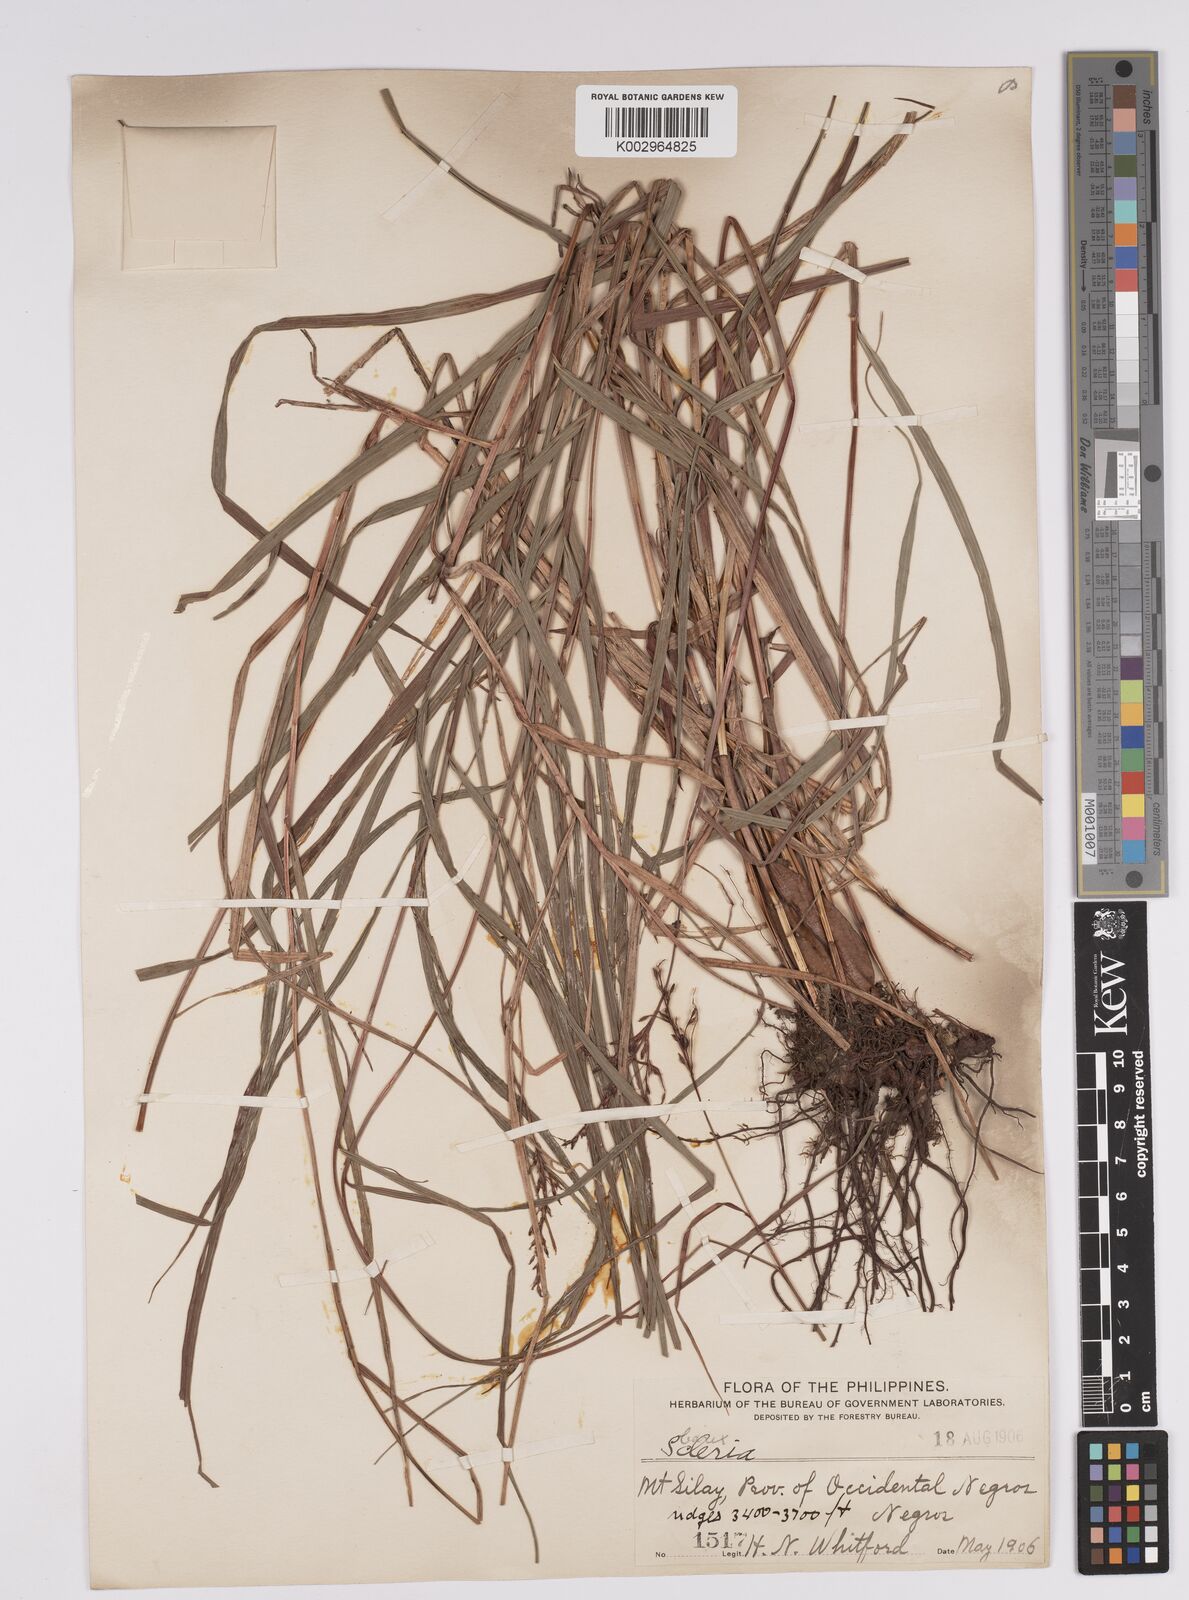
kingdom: Plantae
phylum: Tracheophyta
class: Liliopsida
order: Poales
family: Cyperaceae
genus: Scleria
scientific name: Scleria
